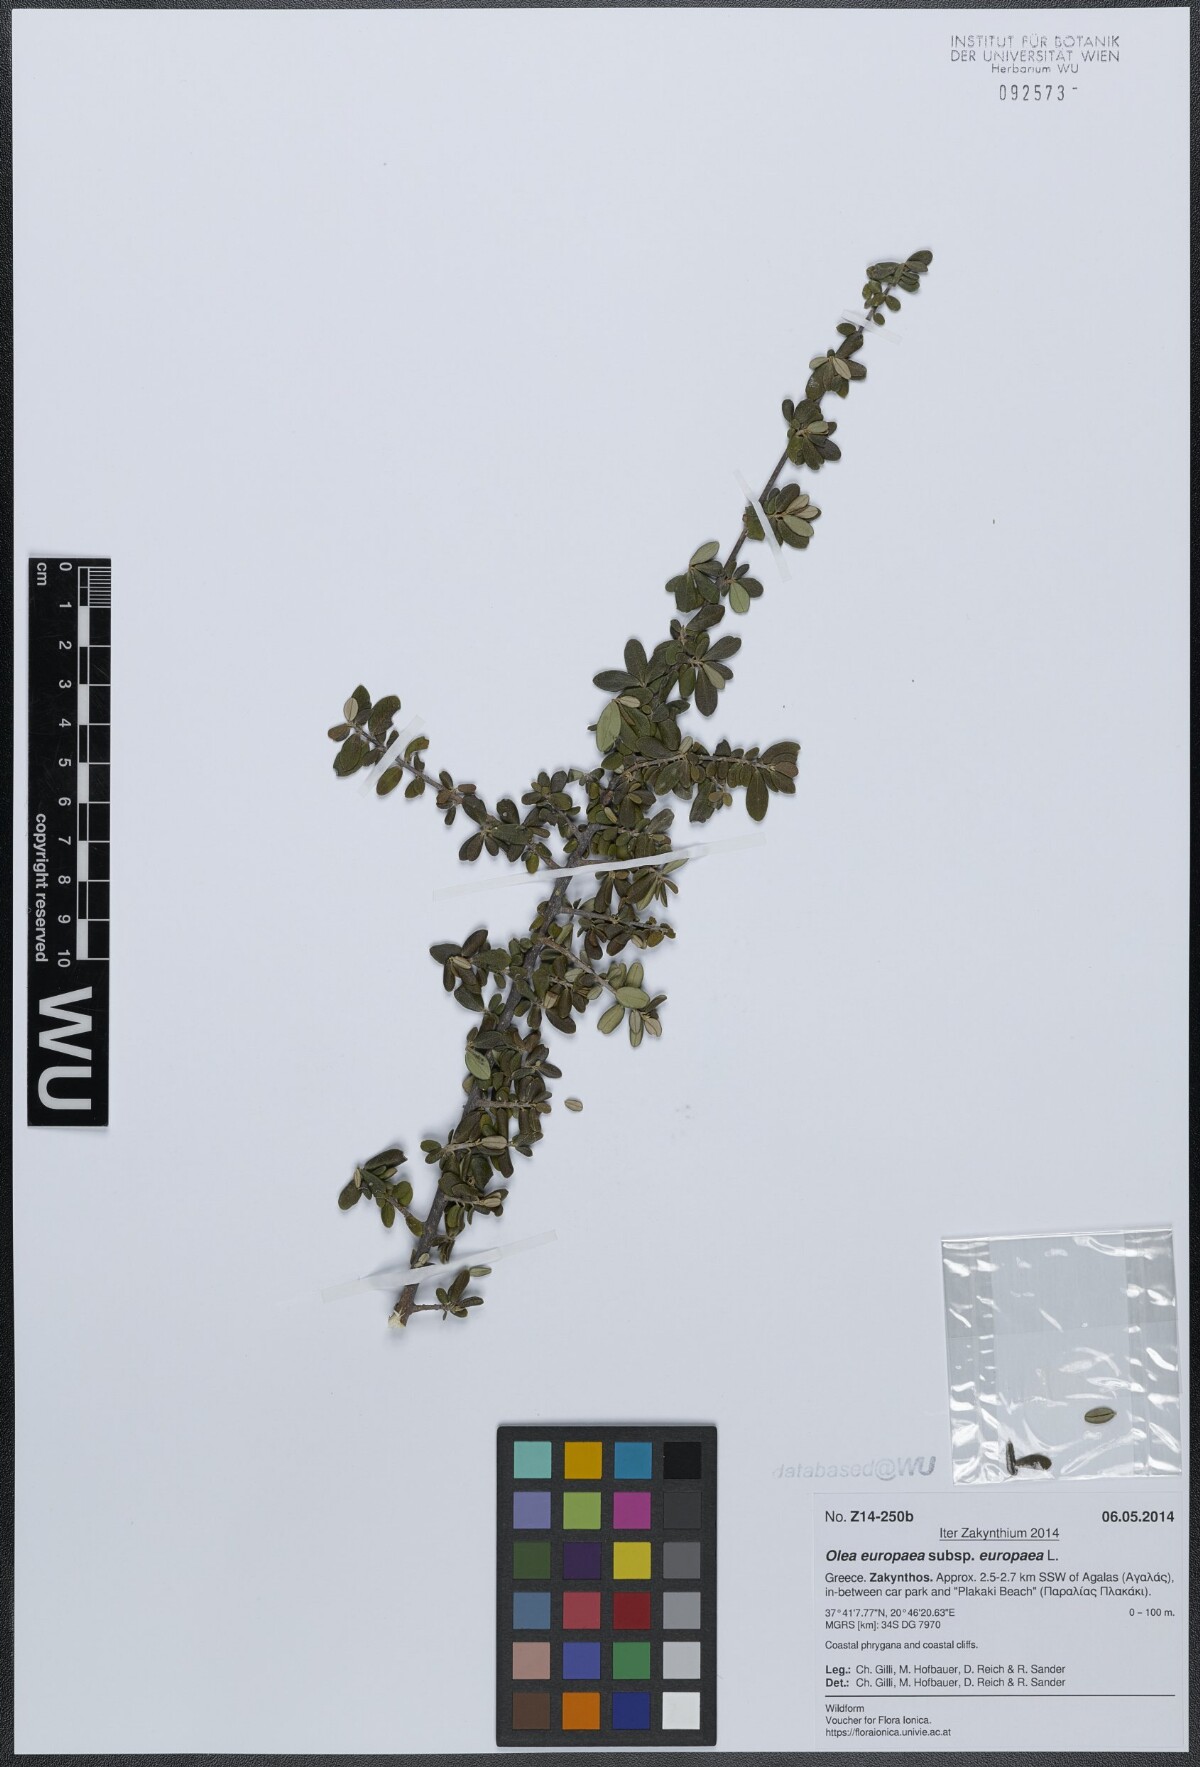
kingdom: Plantae
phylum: Tracheophyta
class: Magnoliopsida
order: Lamiales
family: Oleaceae
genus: Olea
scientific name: Olea europaea
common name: Olive
